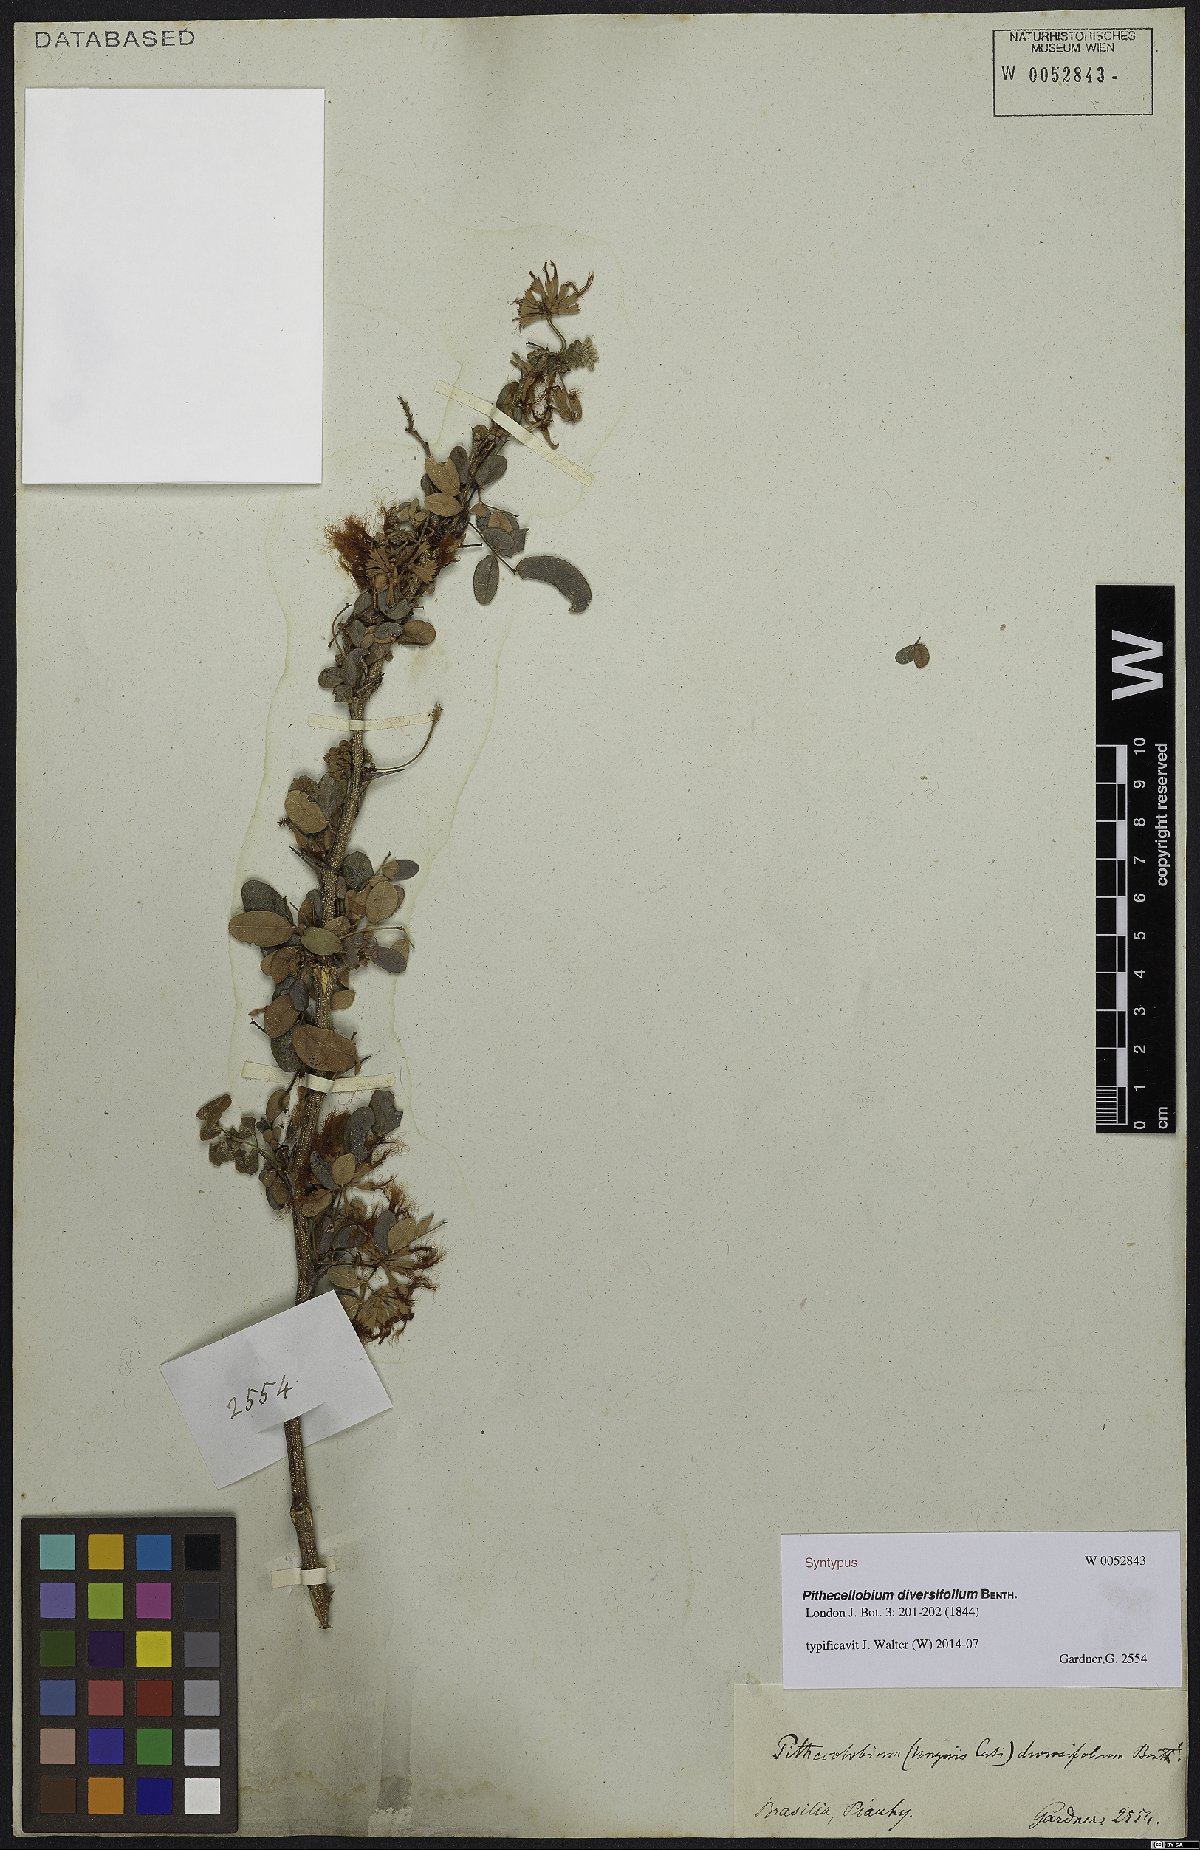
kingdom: Plantae
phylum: Tracheophyta
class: Magnoliopsida
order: Fabales
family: Fabaceae
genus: Pithecellobium
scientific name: Pithecellobium diversifolium
